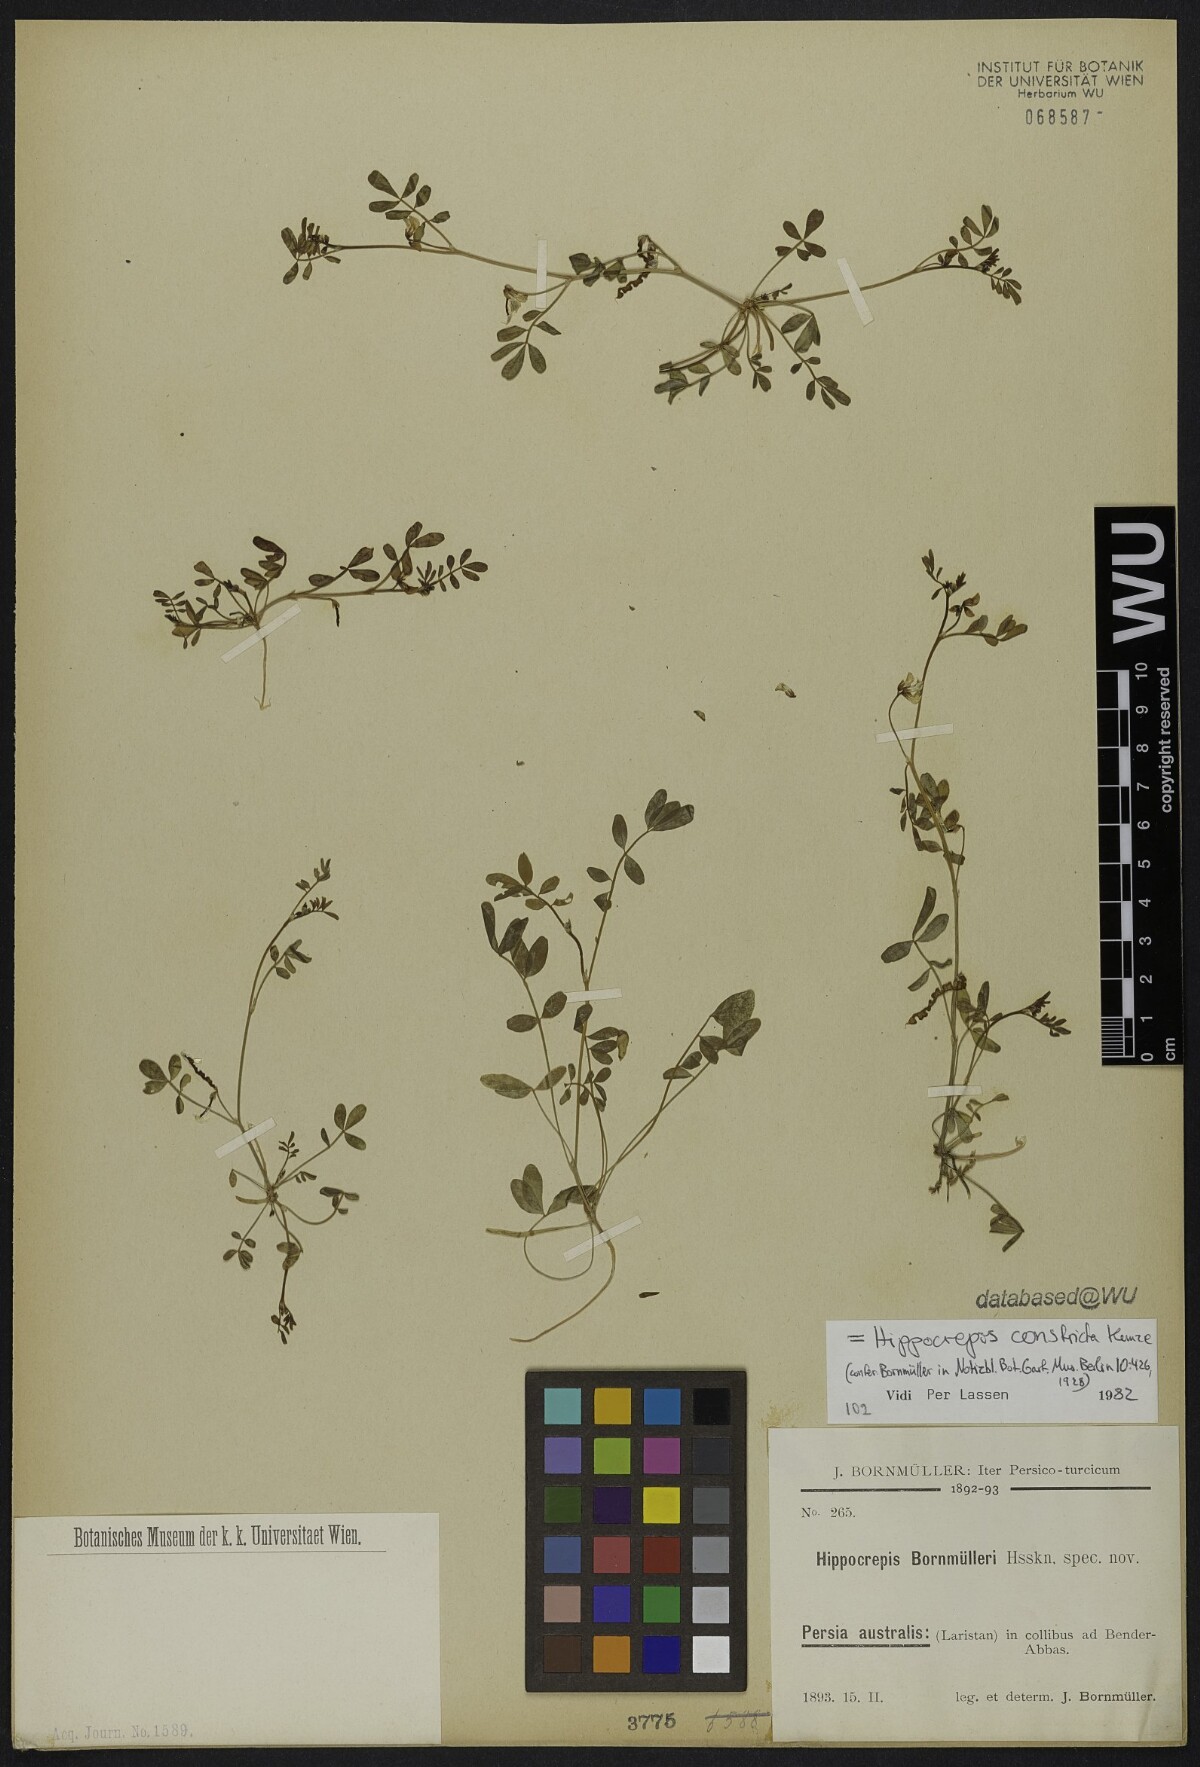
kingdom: Plantae
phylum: Tracheophyta
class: Magnoliopsida
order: Fabales
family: Fabaceae
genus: Hippocrepis
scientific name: Hippocrepis constricta
